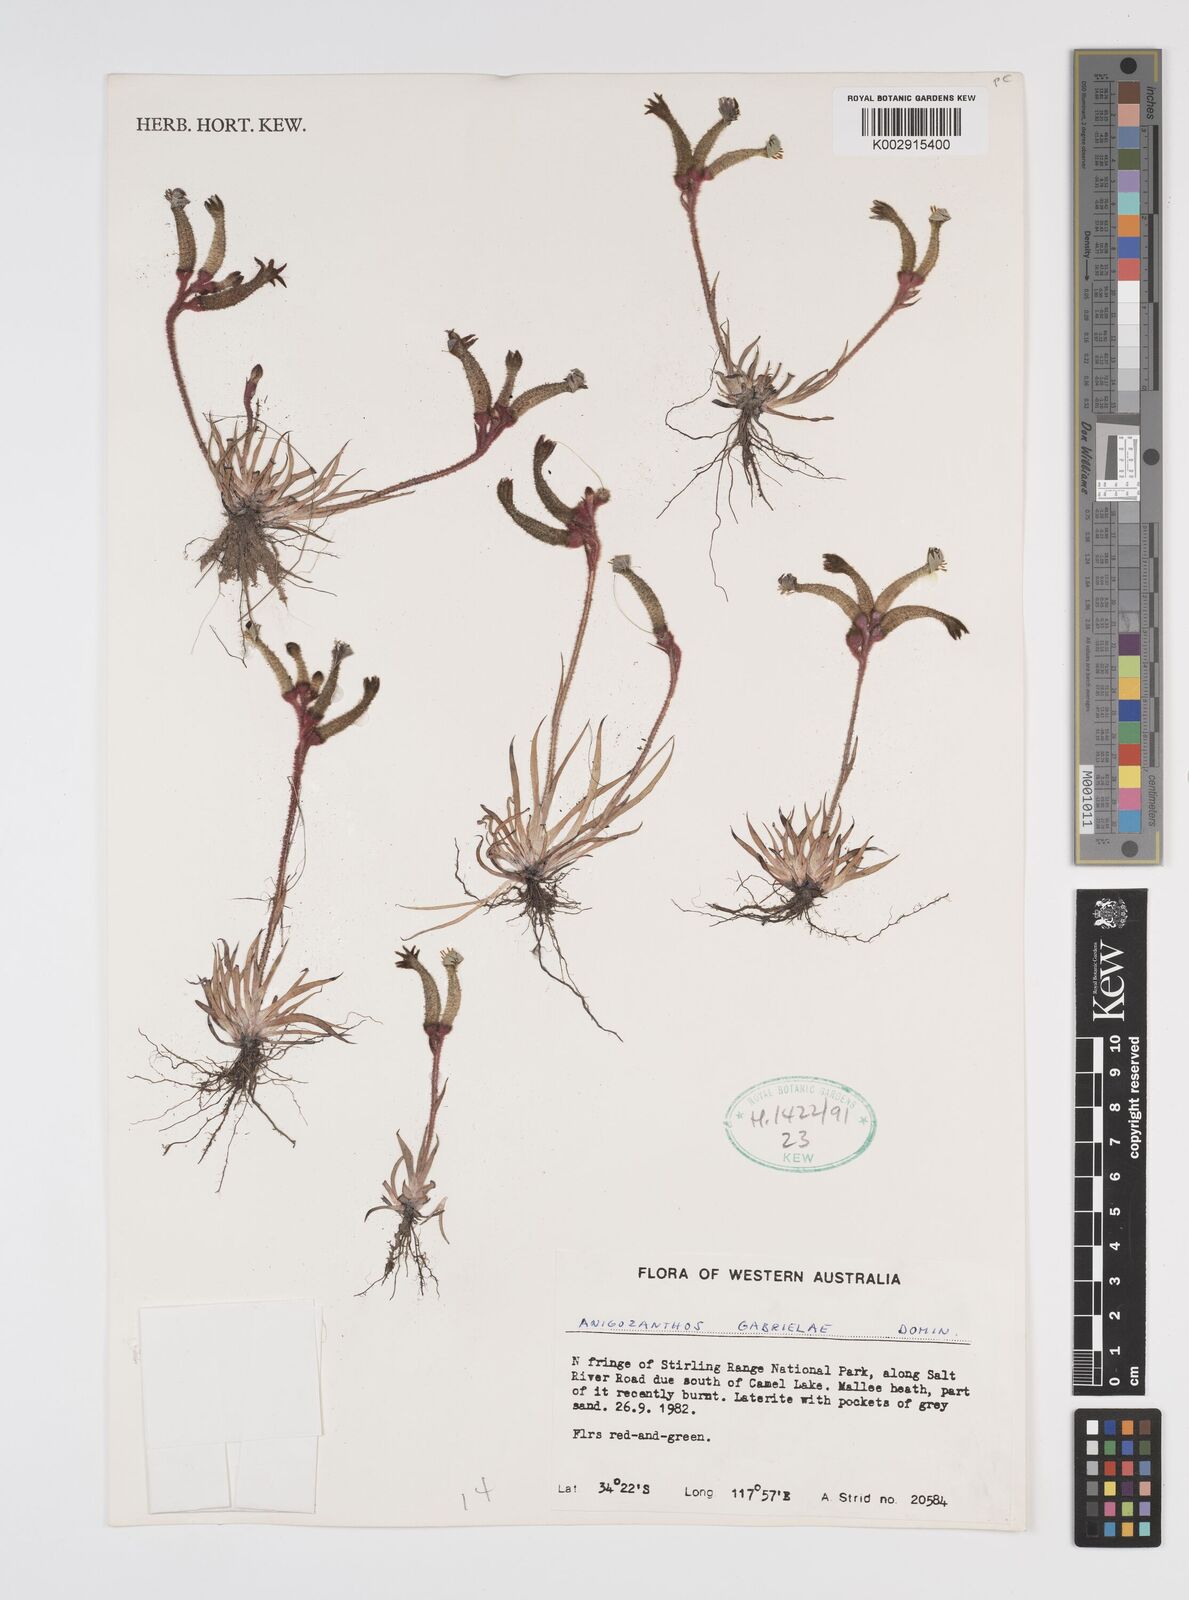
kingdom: Plantae
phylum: Tracheophyta
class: Liliopsida
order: Commelinales
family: Haemodoraceae
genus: Anigozanthos
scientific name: Anigozanthos gabrielae
